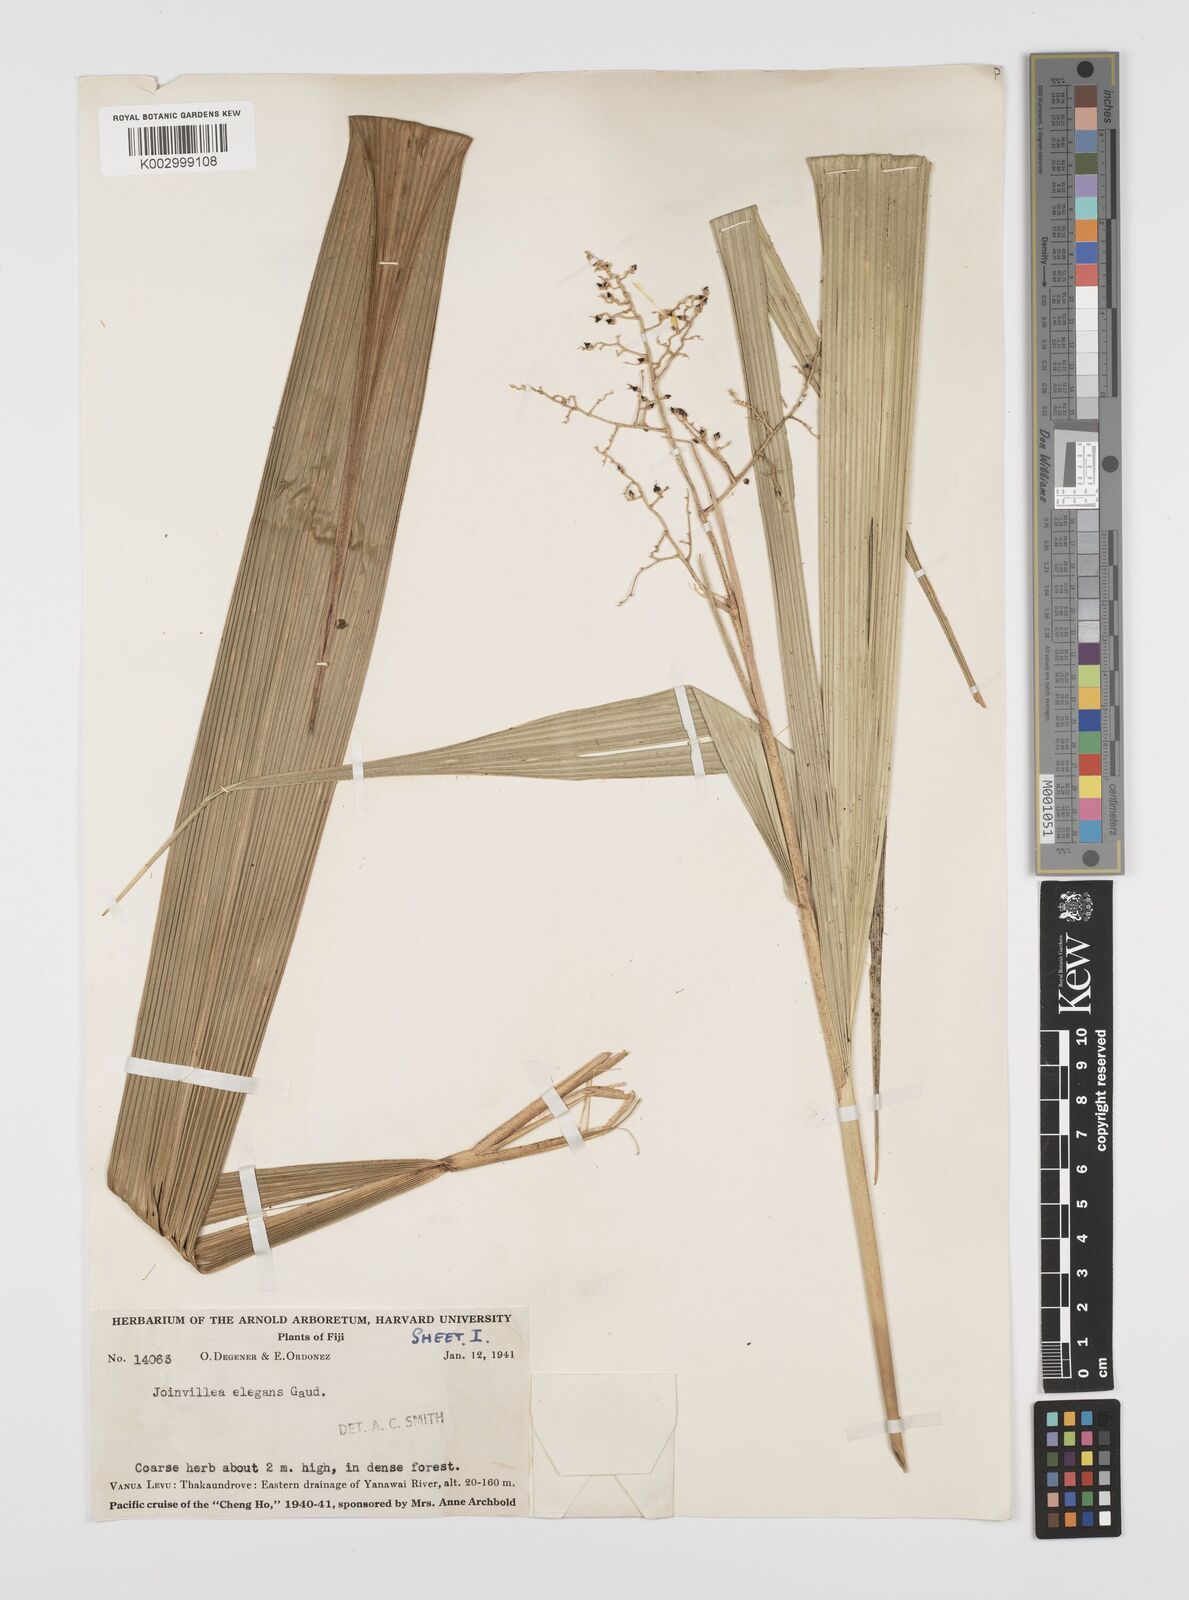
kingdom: Plantae
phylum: Tracheophyta
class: Liliopsida
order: Poales
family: Joinvilleaceae
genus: Joinvillea
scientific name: Joinvillea plicata
